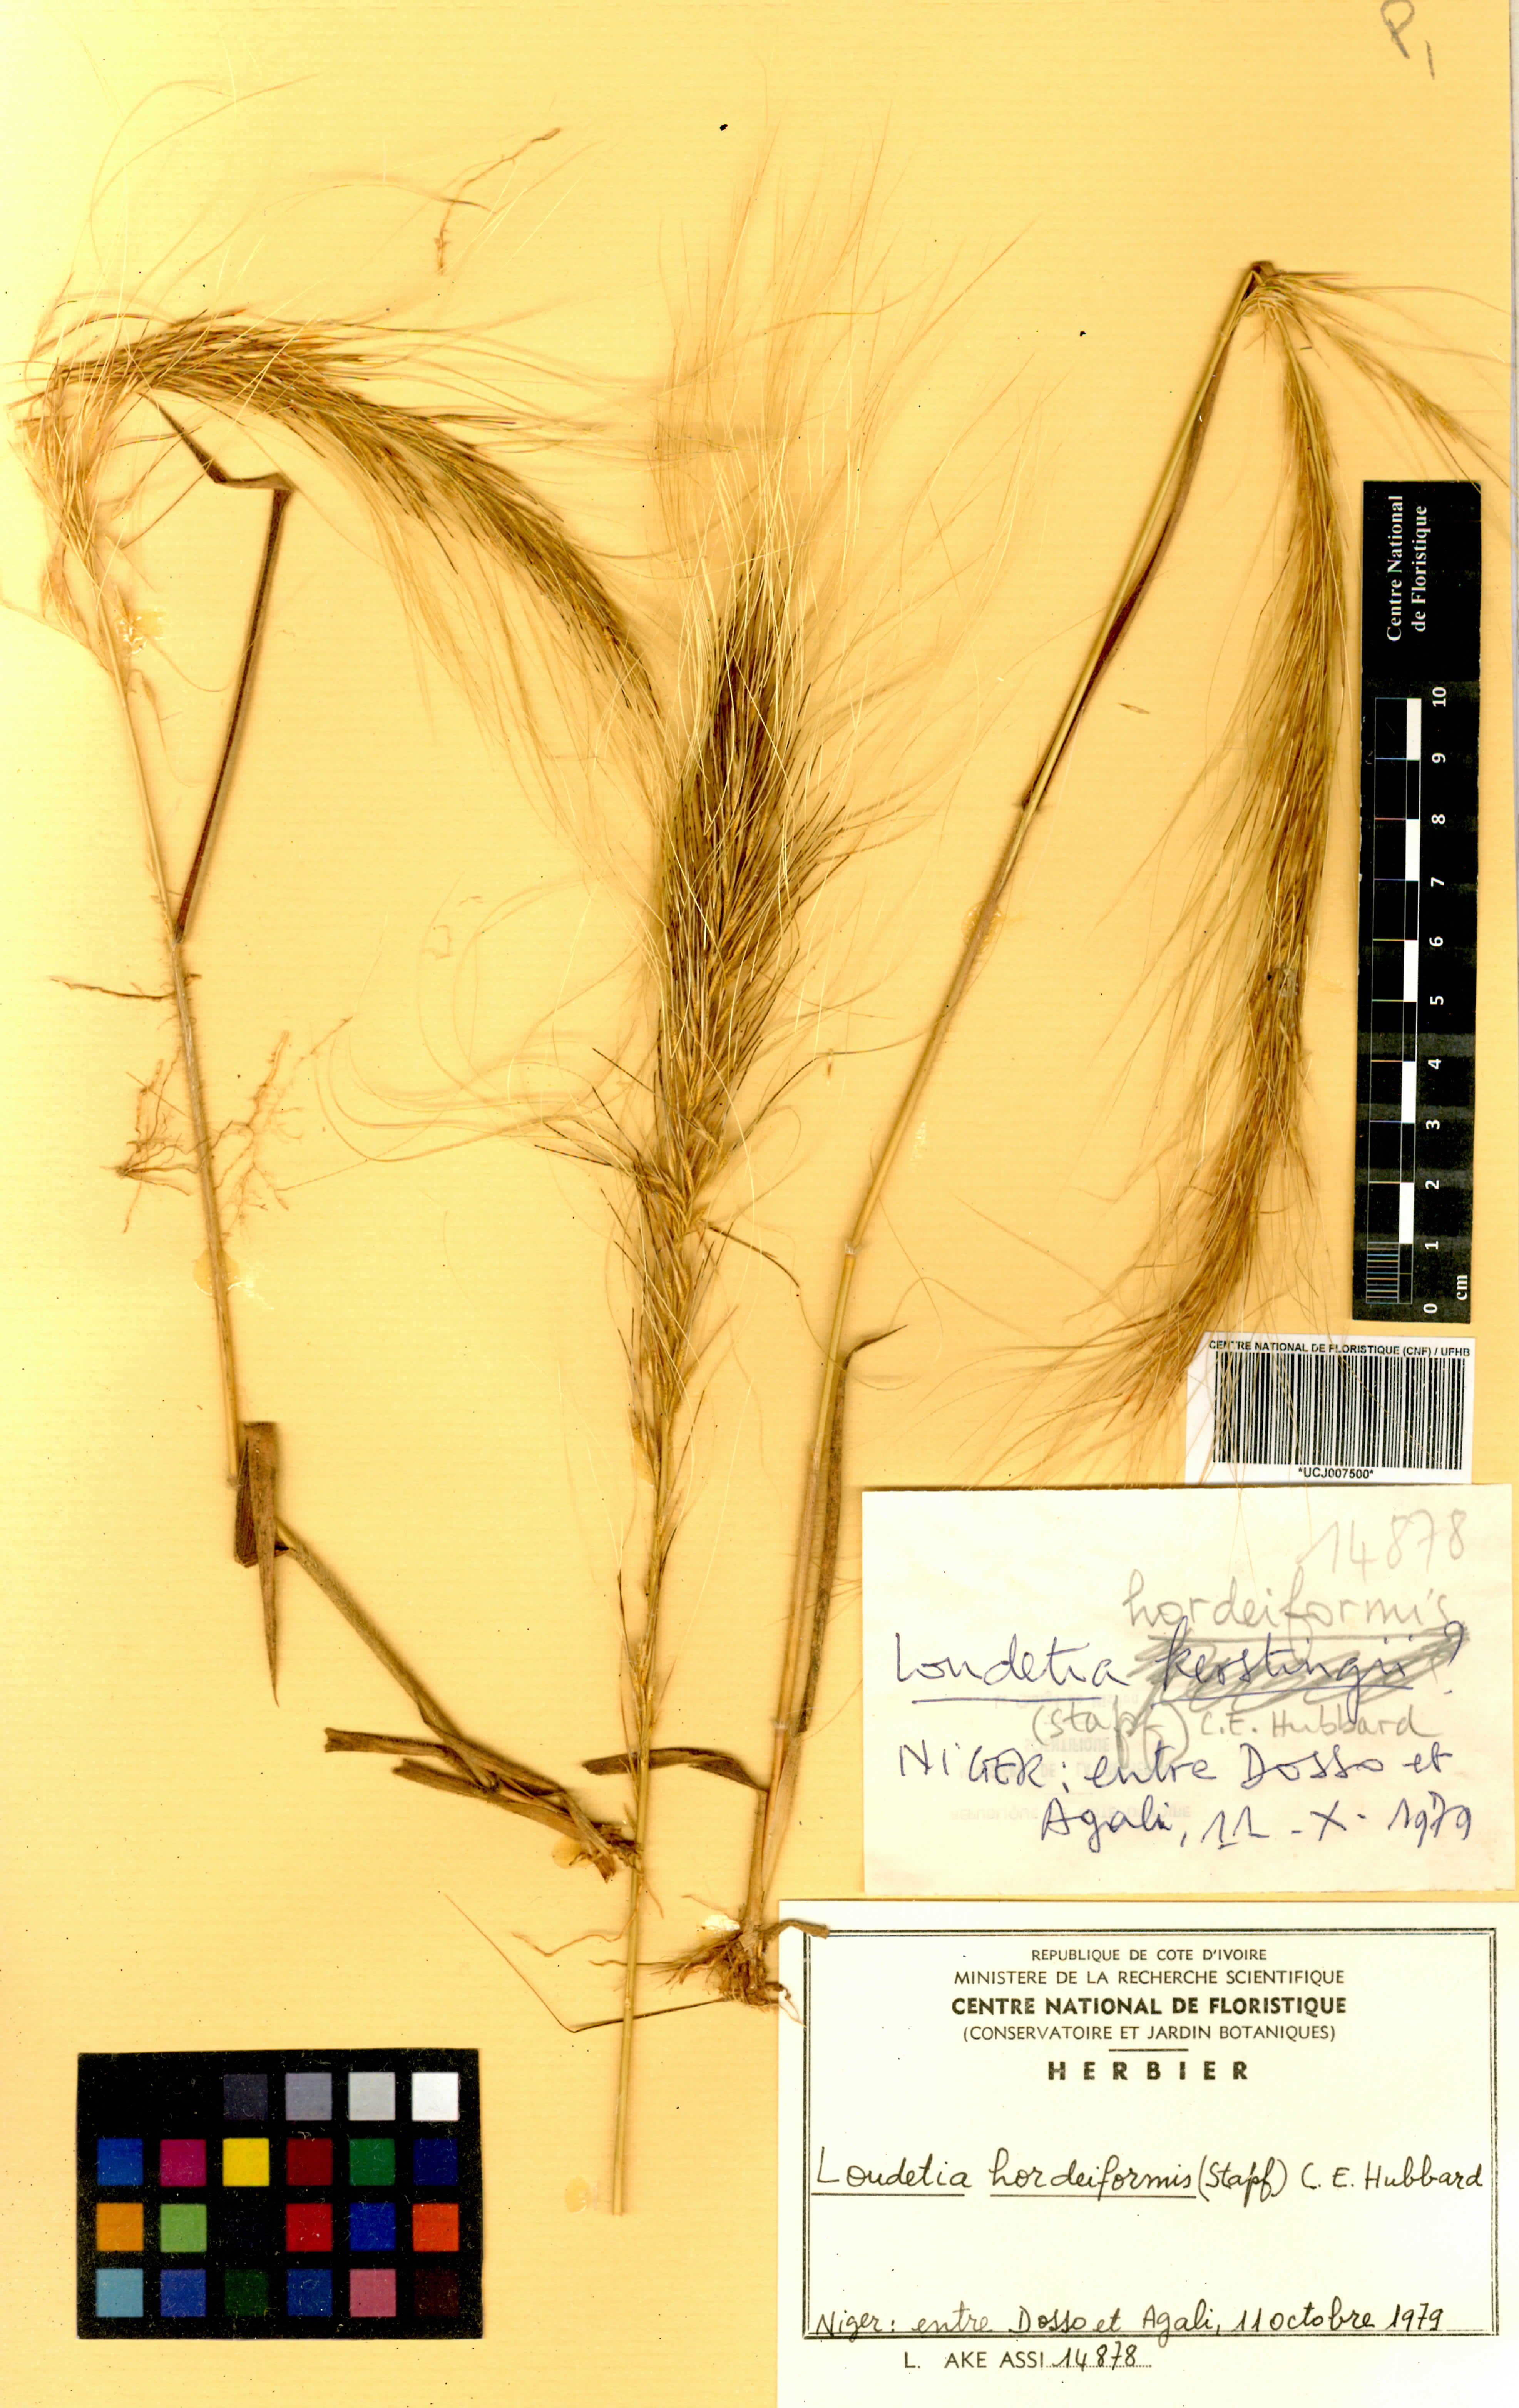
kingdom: Plantae
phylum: Tracheophyta
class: Liliopsida
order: Poales
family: Poaceae
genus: Loudetia
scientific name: Loudetia hordeiformis
